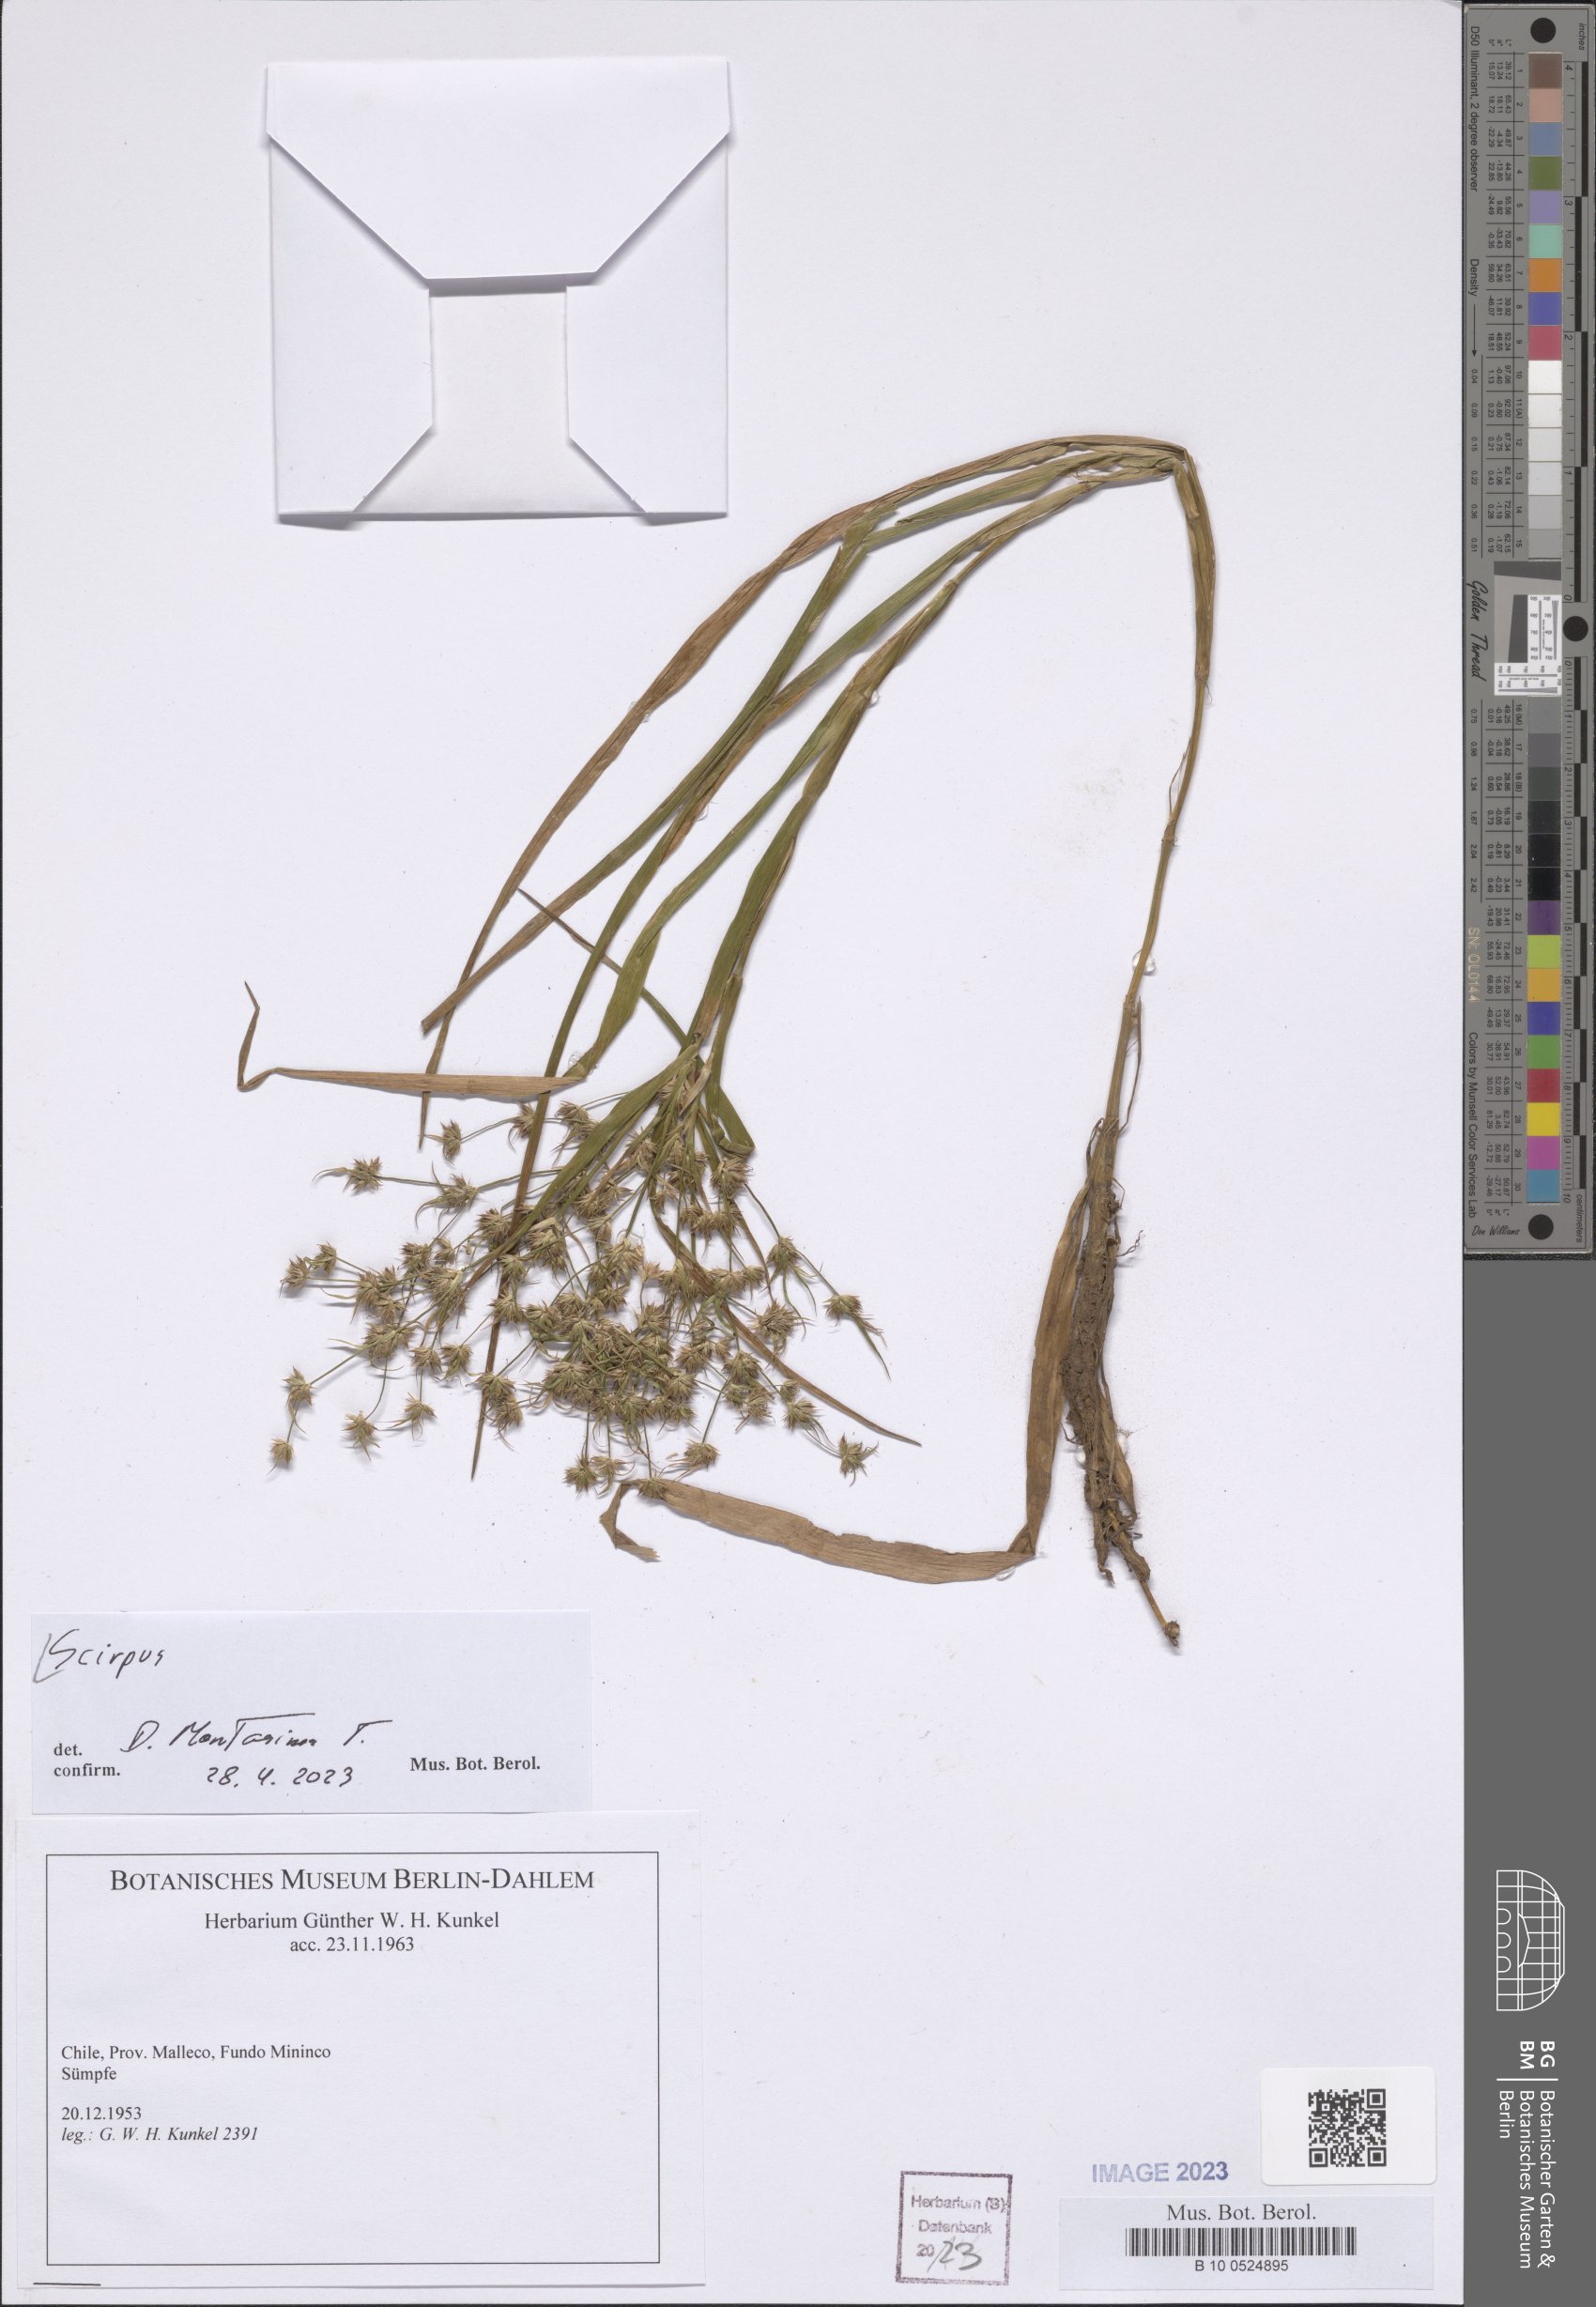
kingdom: Plantae
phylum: Tracheophyta
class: Liliopsida
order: Poales
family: Cyperaceae
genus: Scirpus
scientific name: Scirpus
